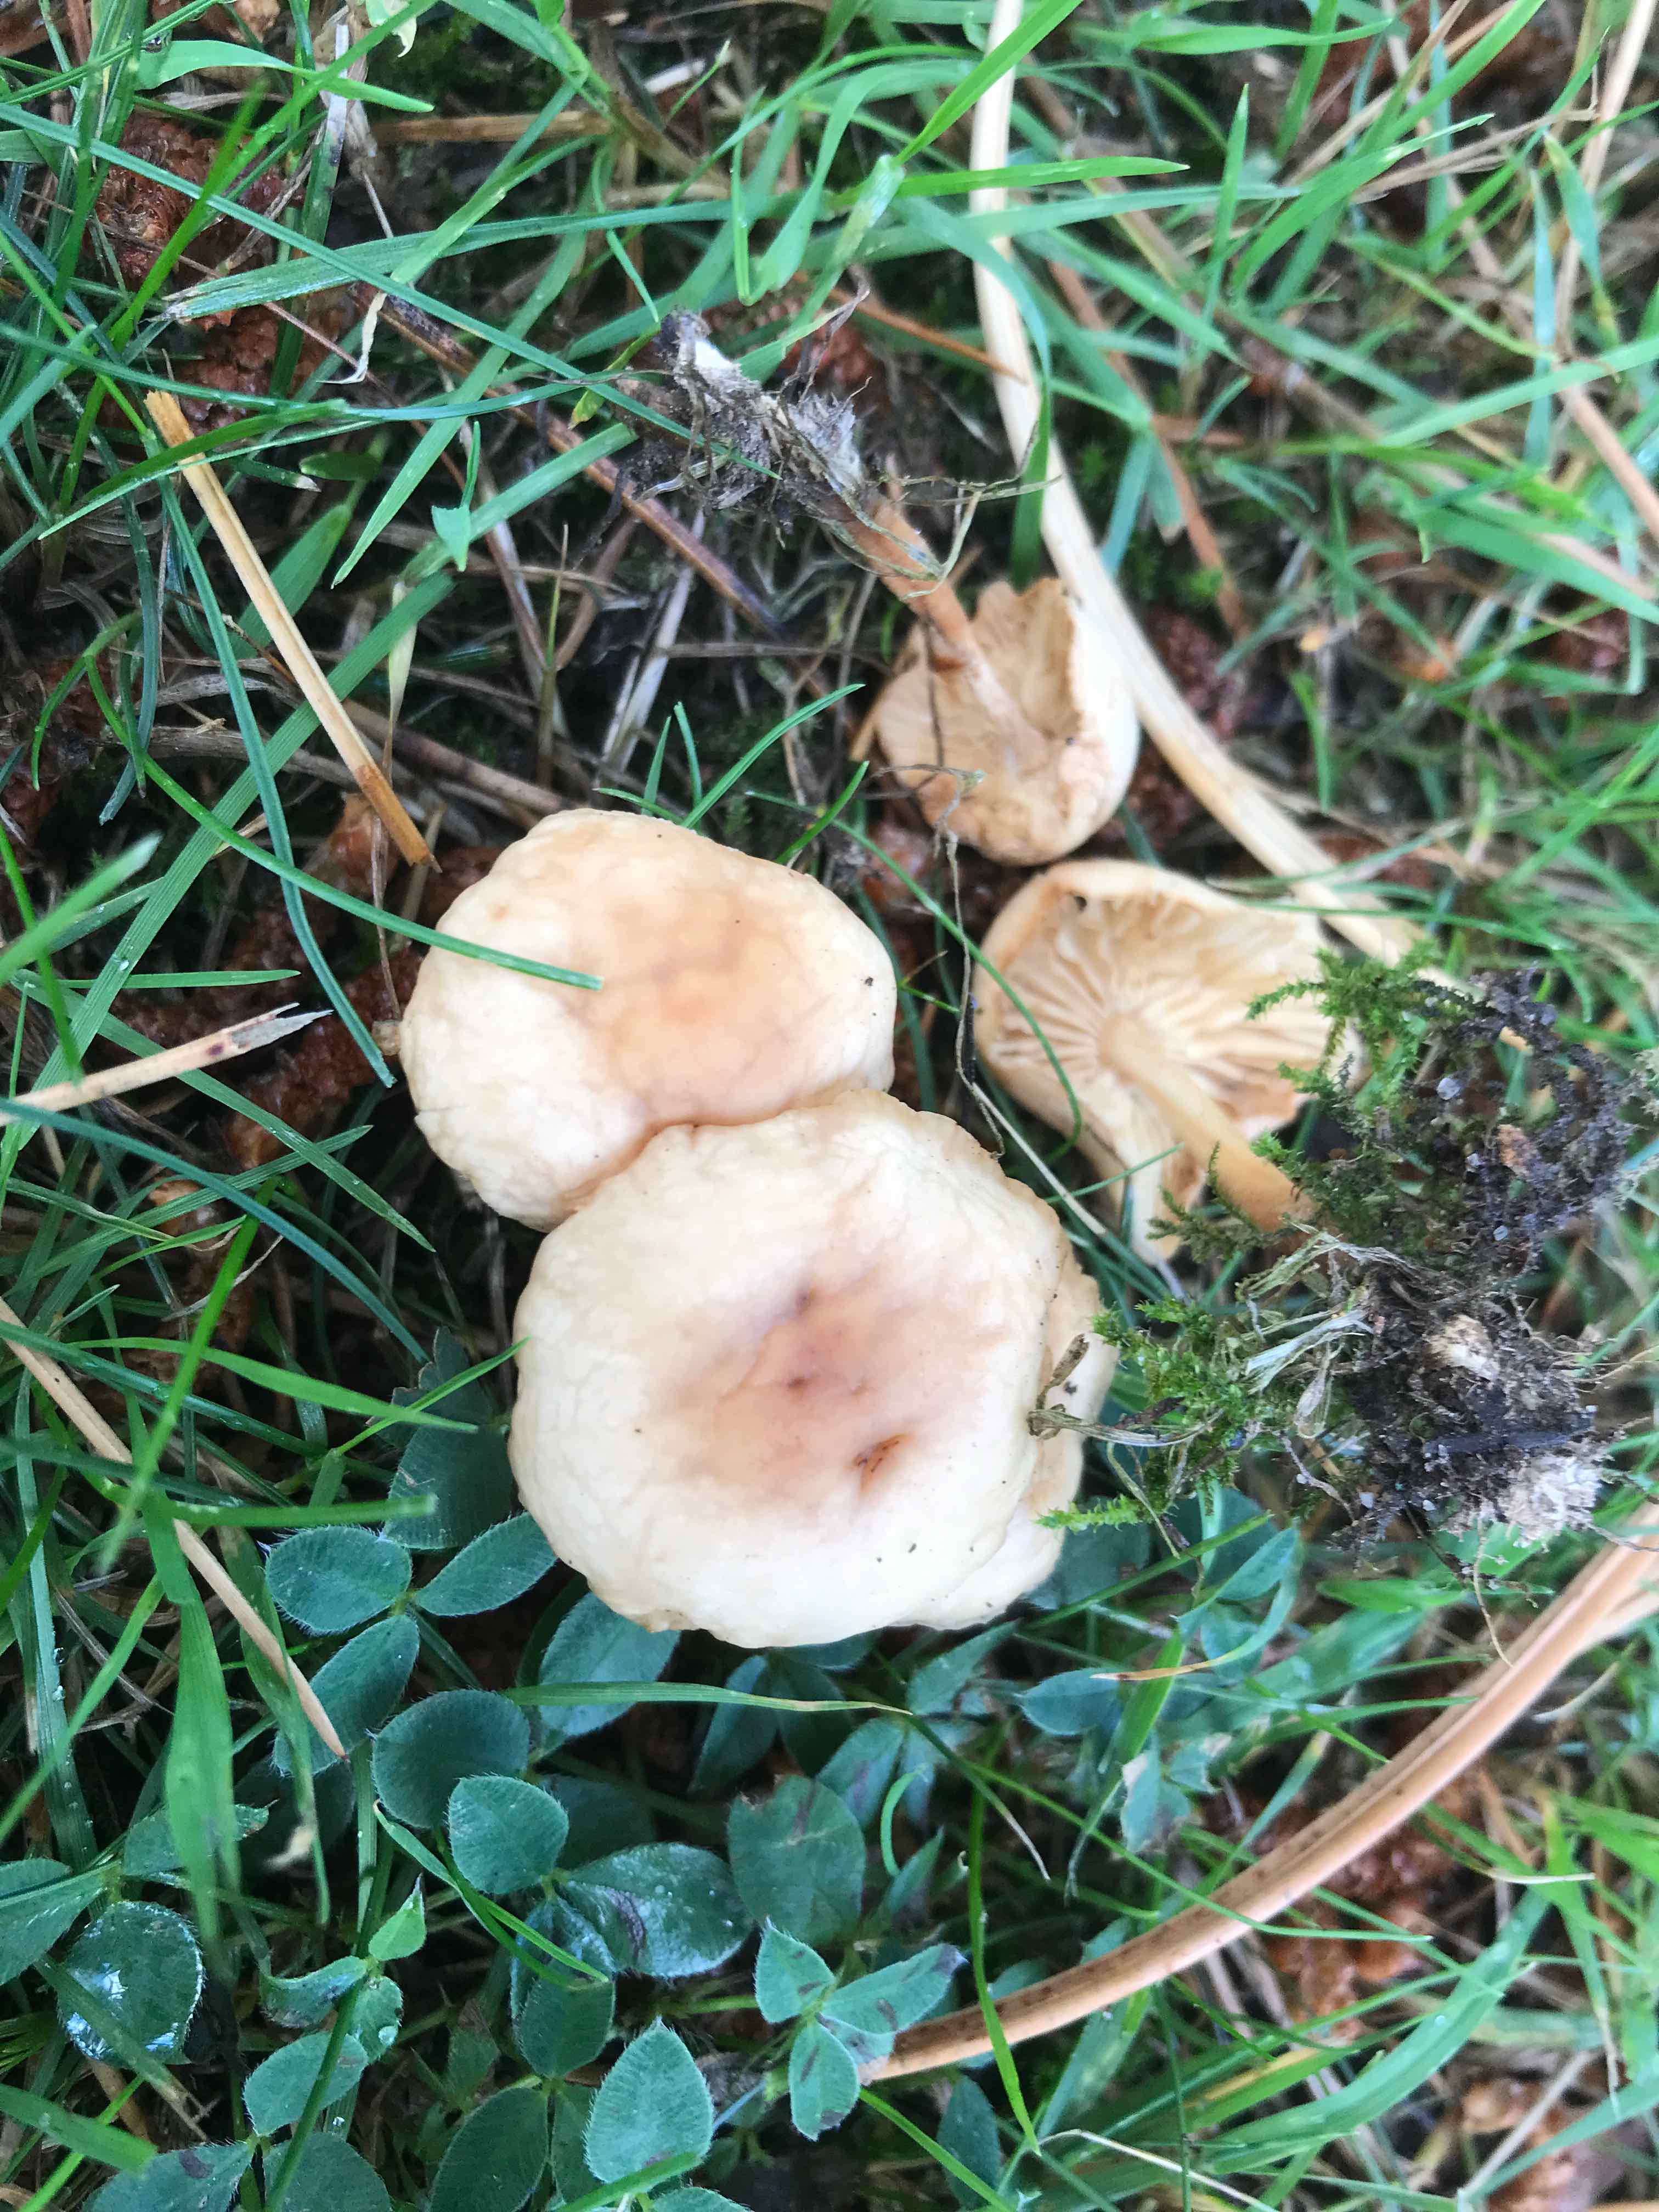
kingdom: Fungi
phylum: Basidiomycota
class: Agaricomycetes
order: Agaricales
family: Marasmiaceae
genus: Marasmius
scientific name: Marasmius oreades
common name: elledans-bruskhat
